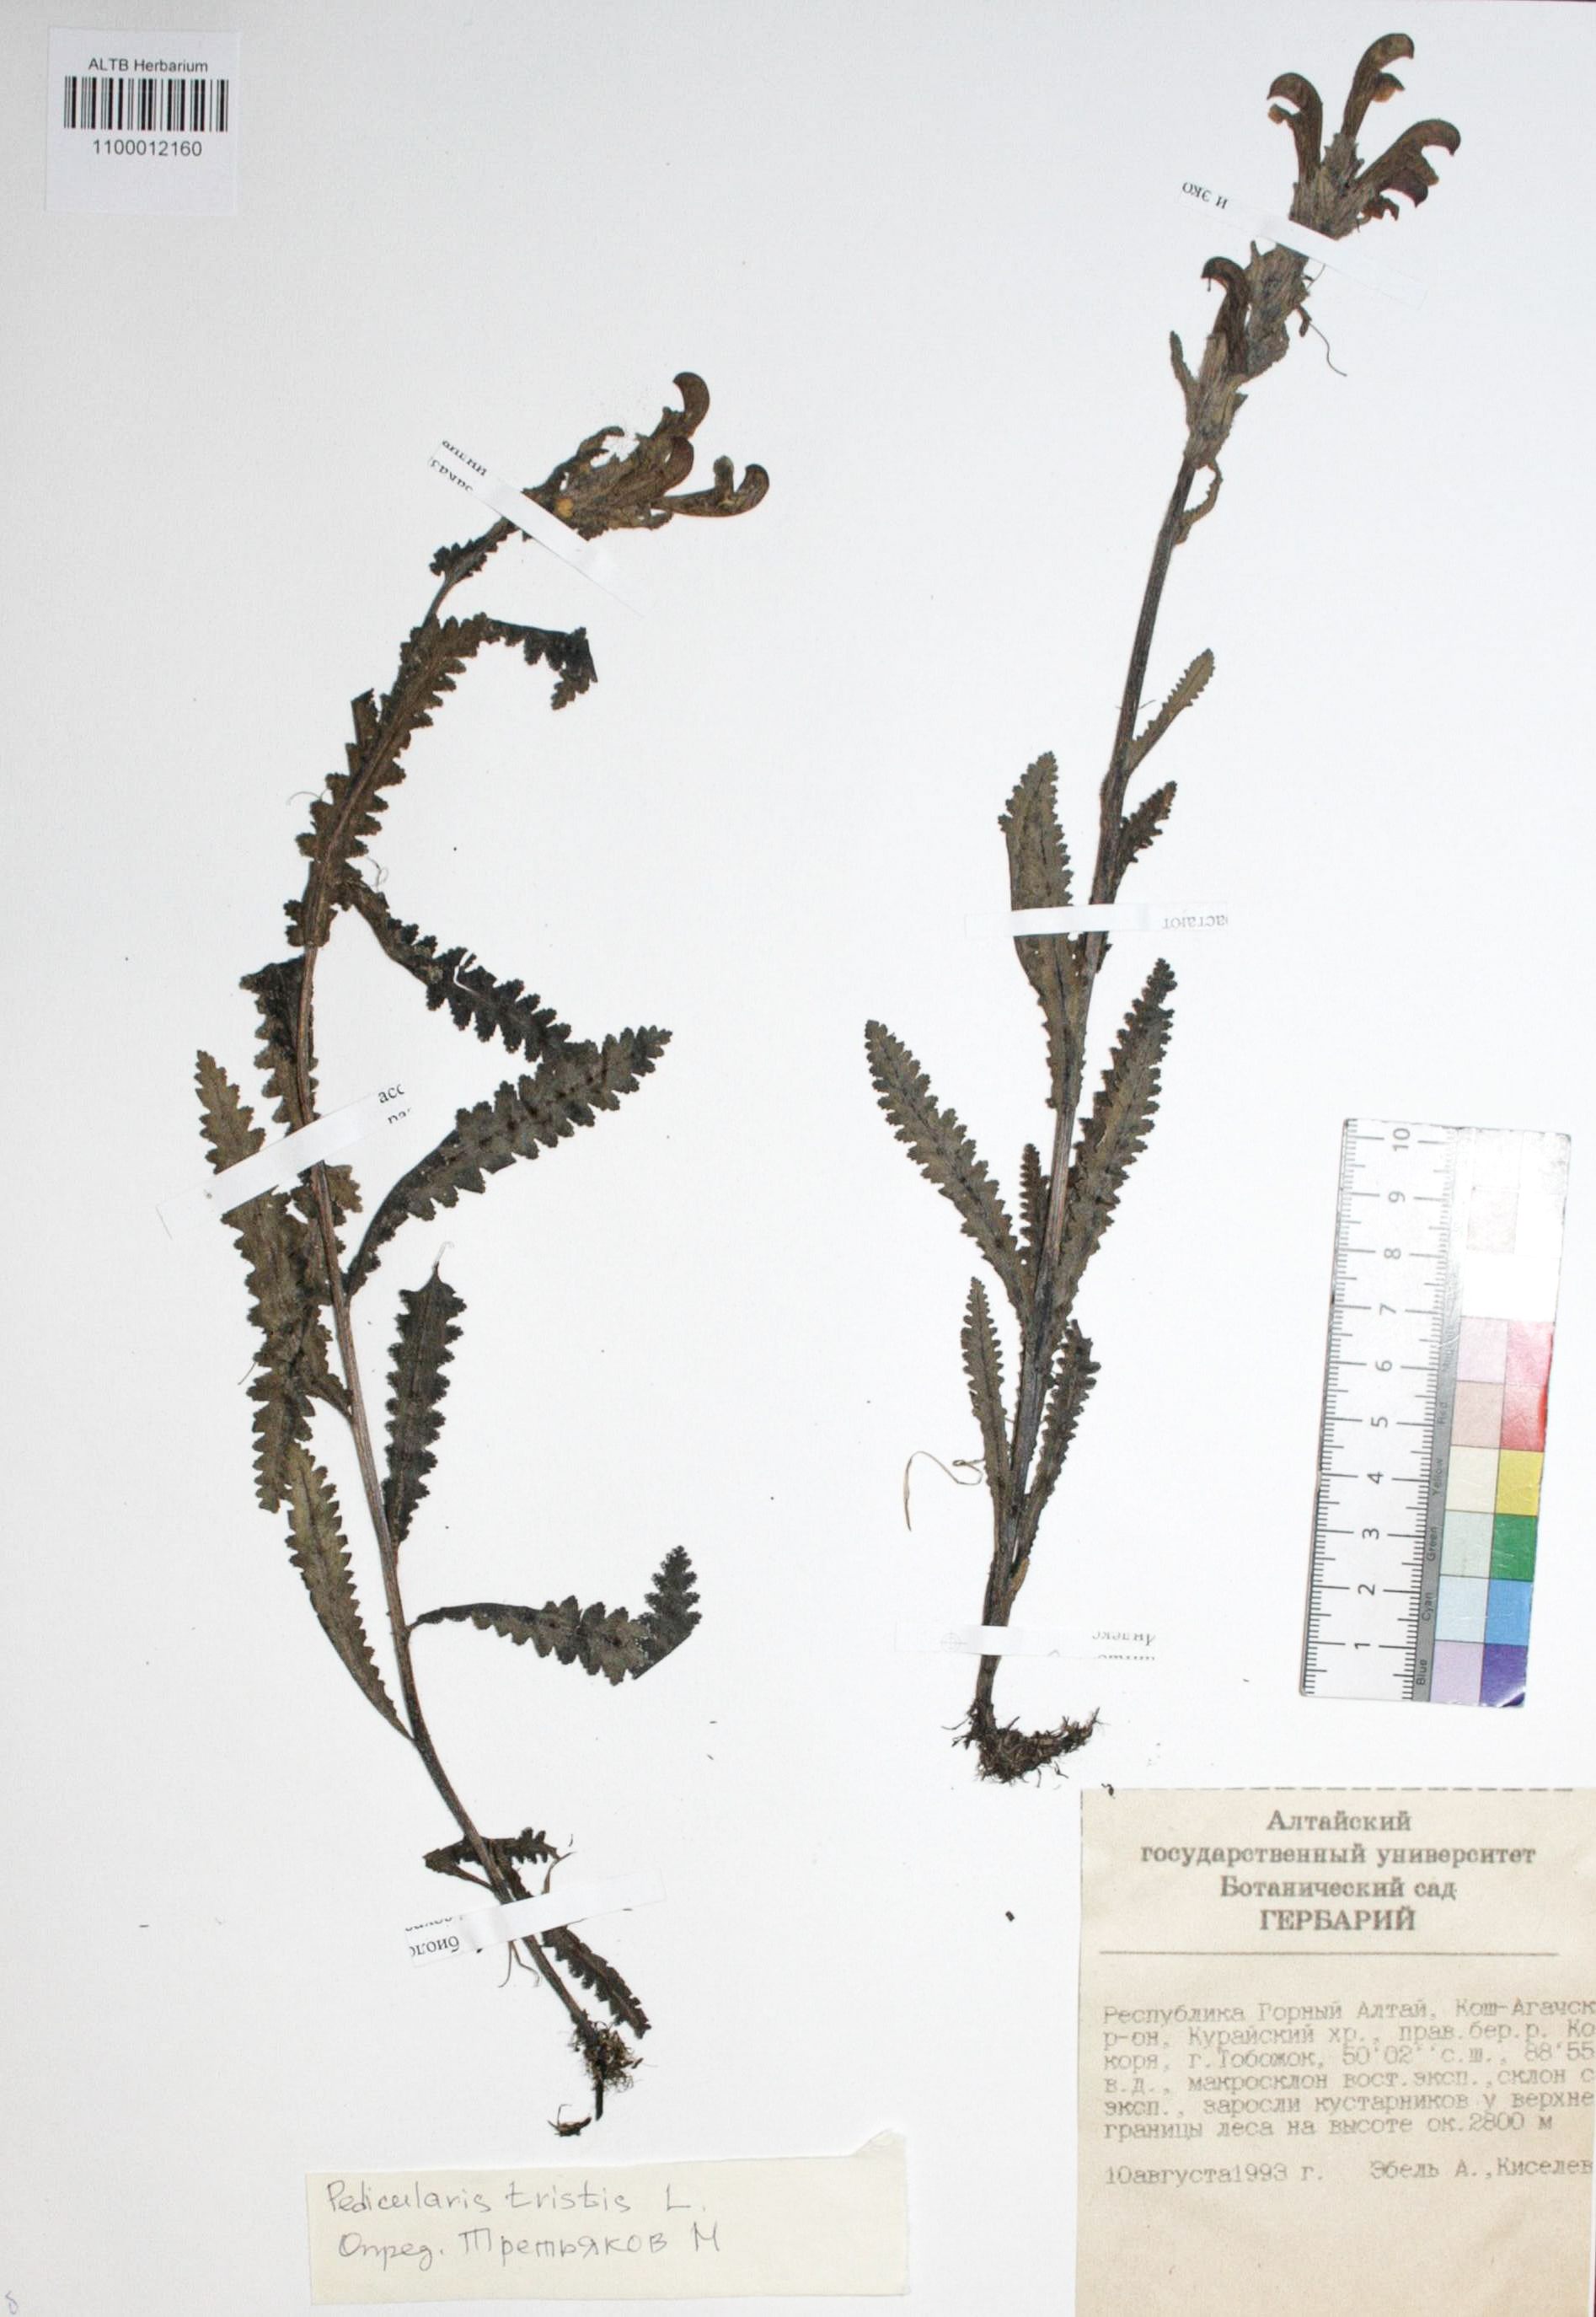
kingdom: Plantae
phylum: Tracheophyta
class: Magnoliopsida
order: Lamiales
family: Orobanchaceae
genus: Pedicularis
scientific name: Pedicularis tristis
